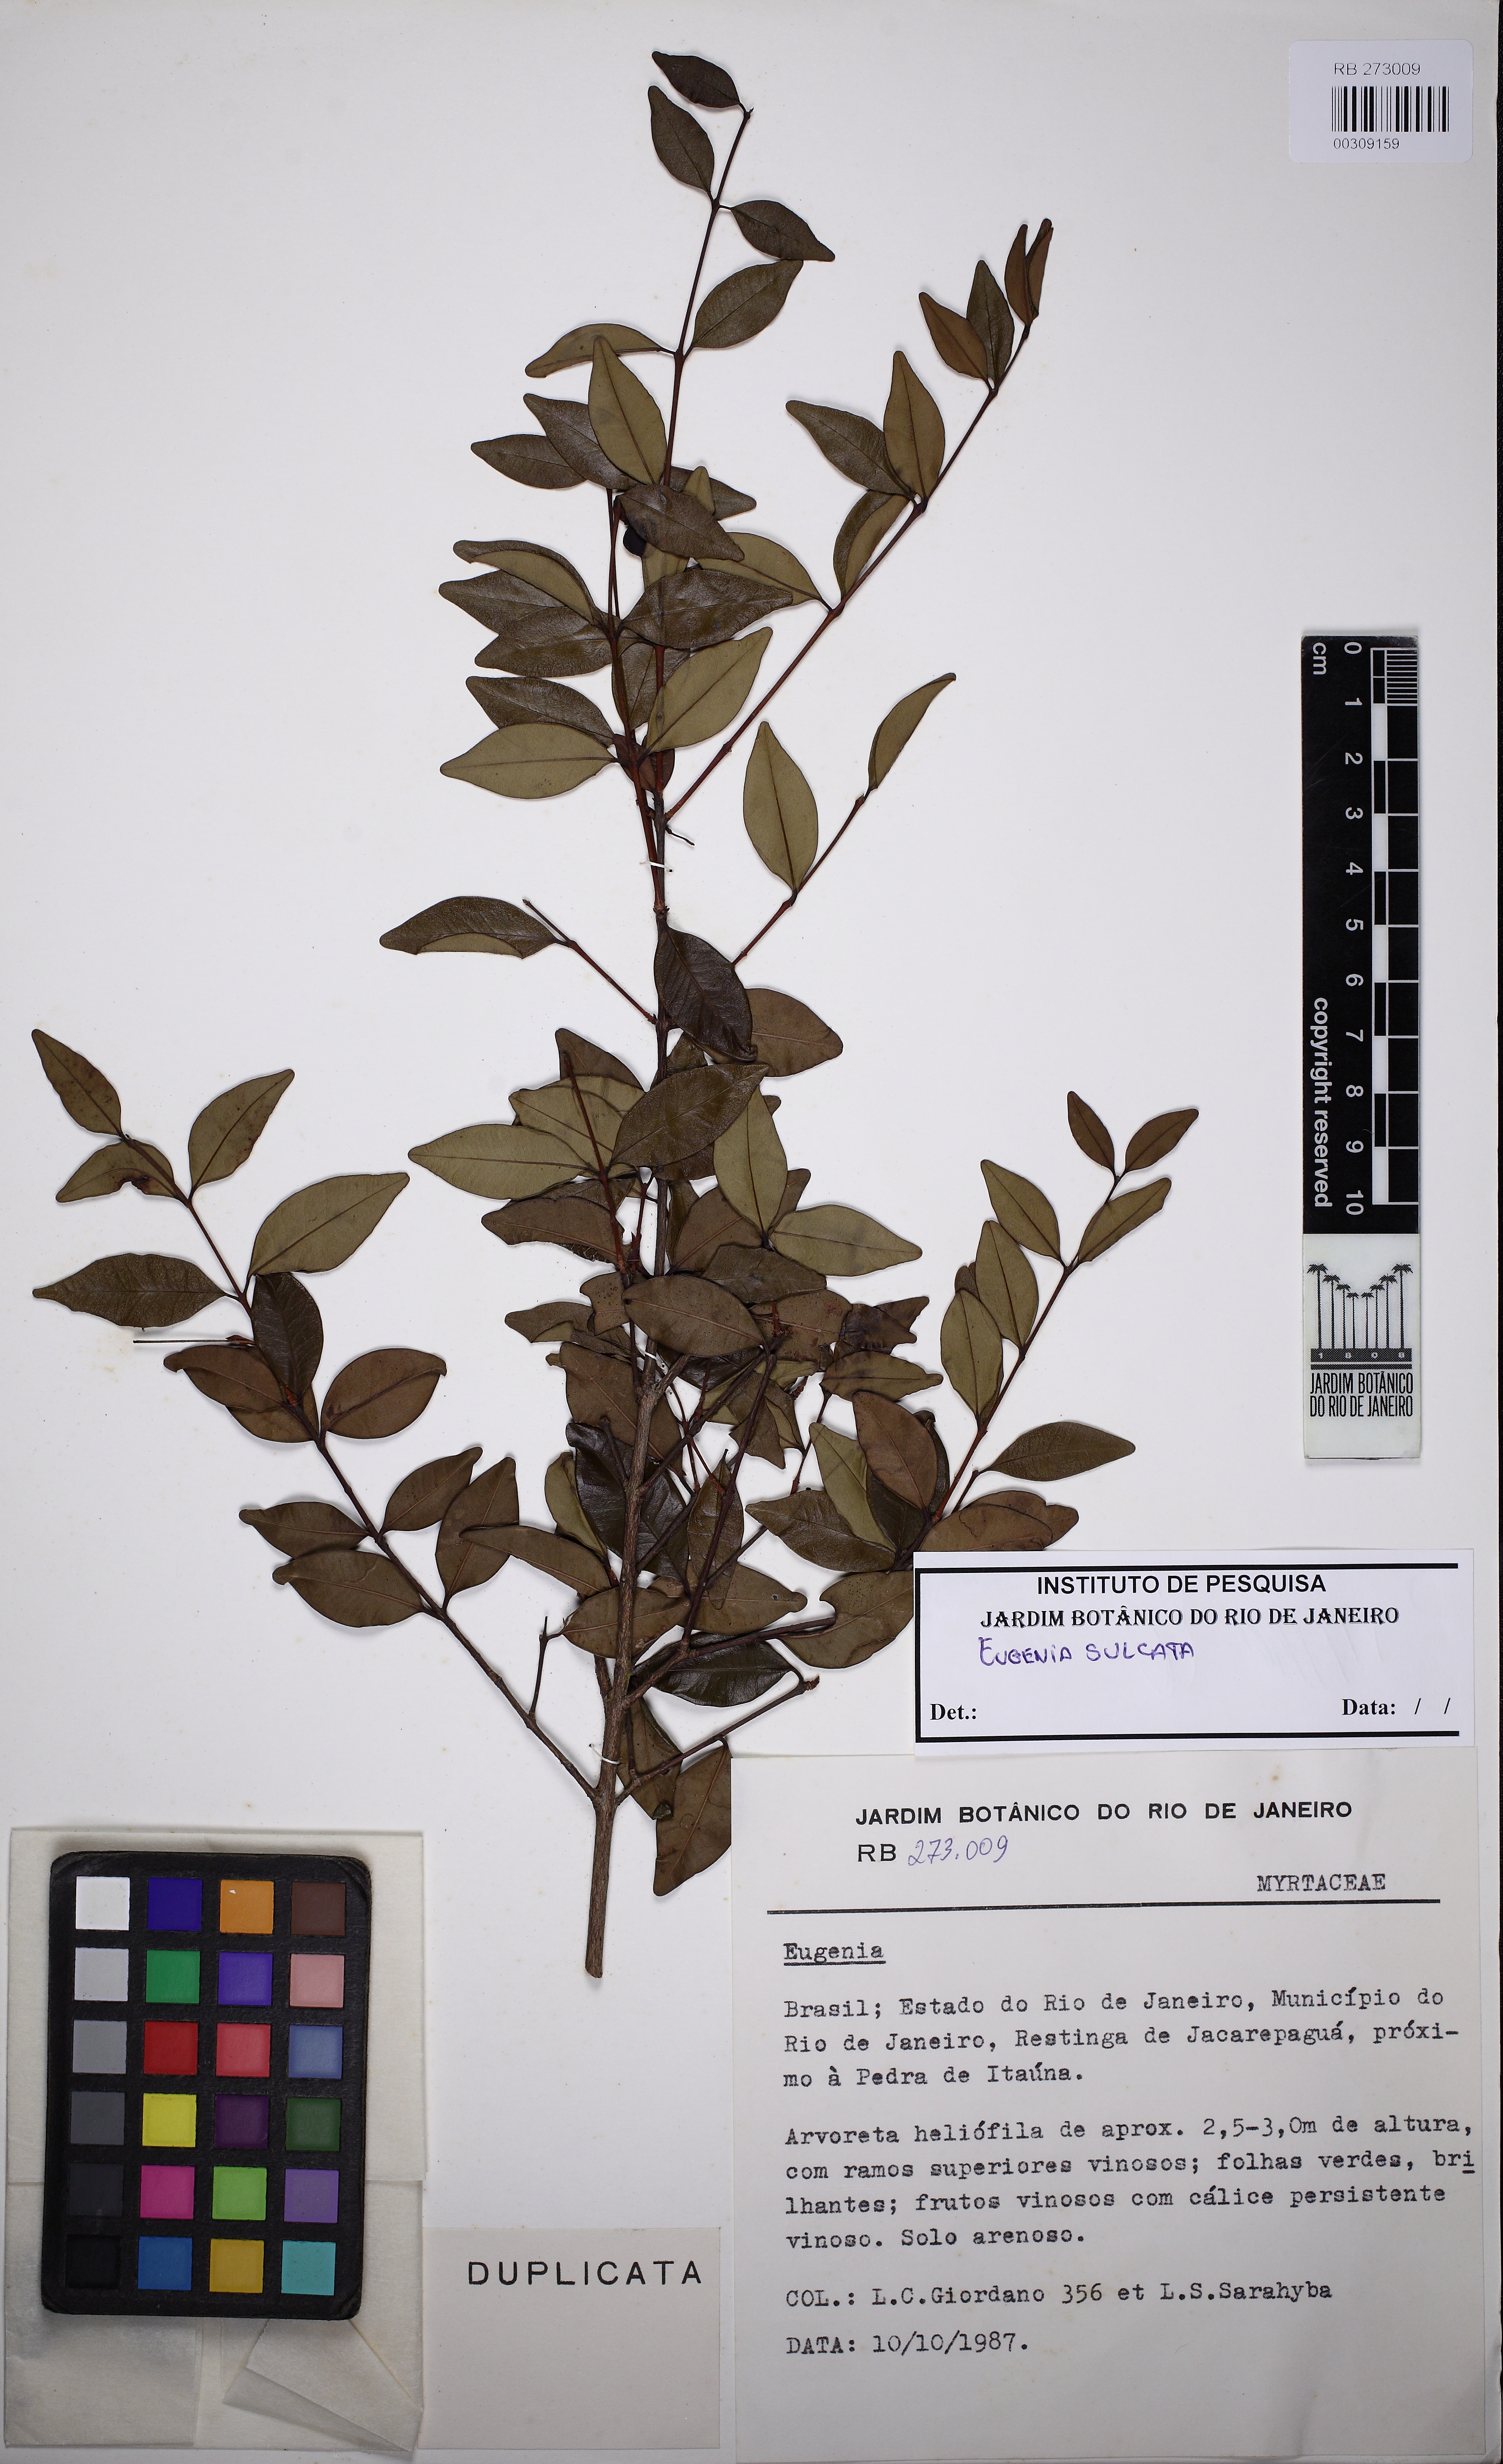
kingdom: Plantae
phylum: Tracheophyta
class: Magnoliopsida
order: Myrtales
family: Myrtaceae
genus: Eugenia
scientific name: Eugenia sulcata
